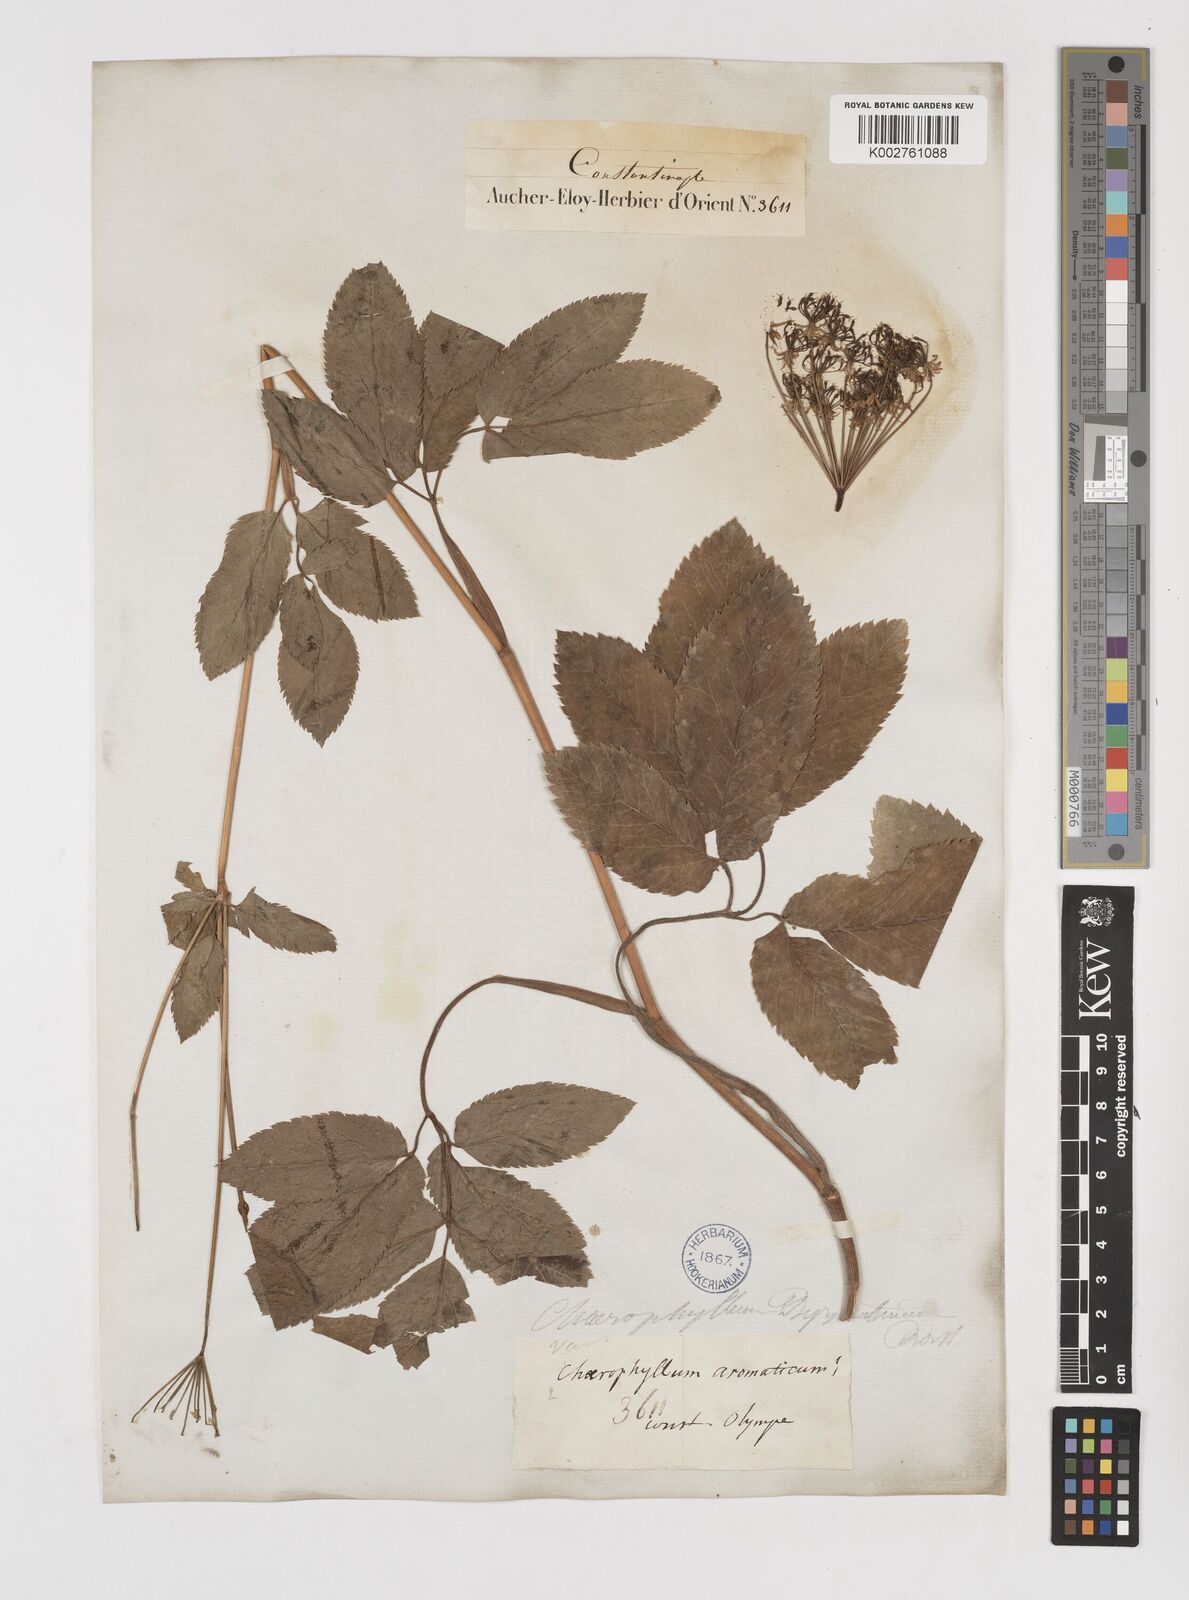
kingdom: Plantae
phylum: Tracheophyta
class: Magnoliopsida
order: Apiales
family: Apiaceae
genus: Chaerophyllum
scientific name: Chaerophyllum aromaticum
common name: Broadleaf chervil
